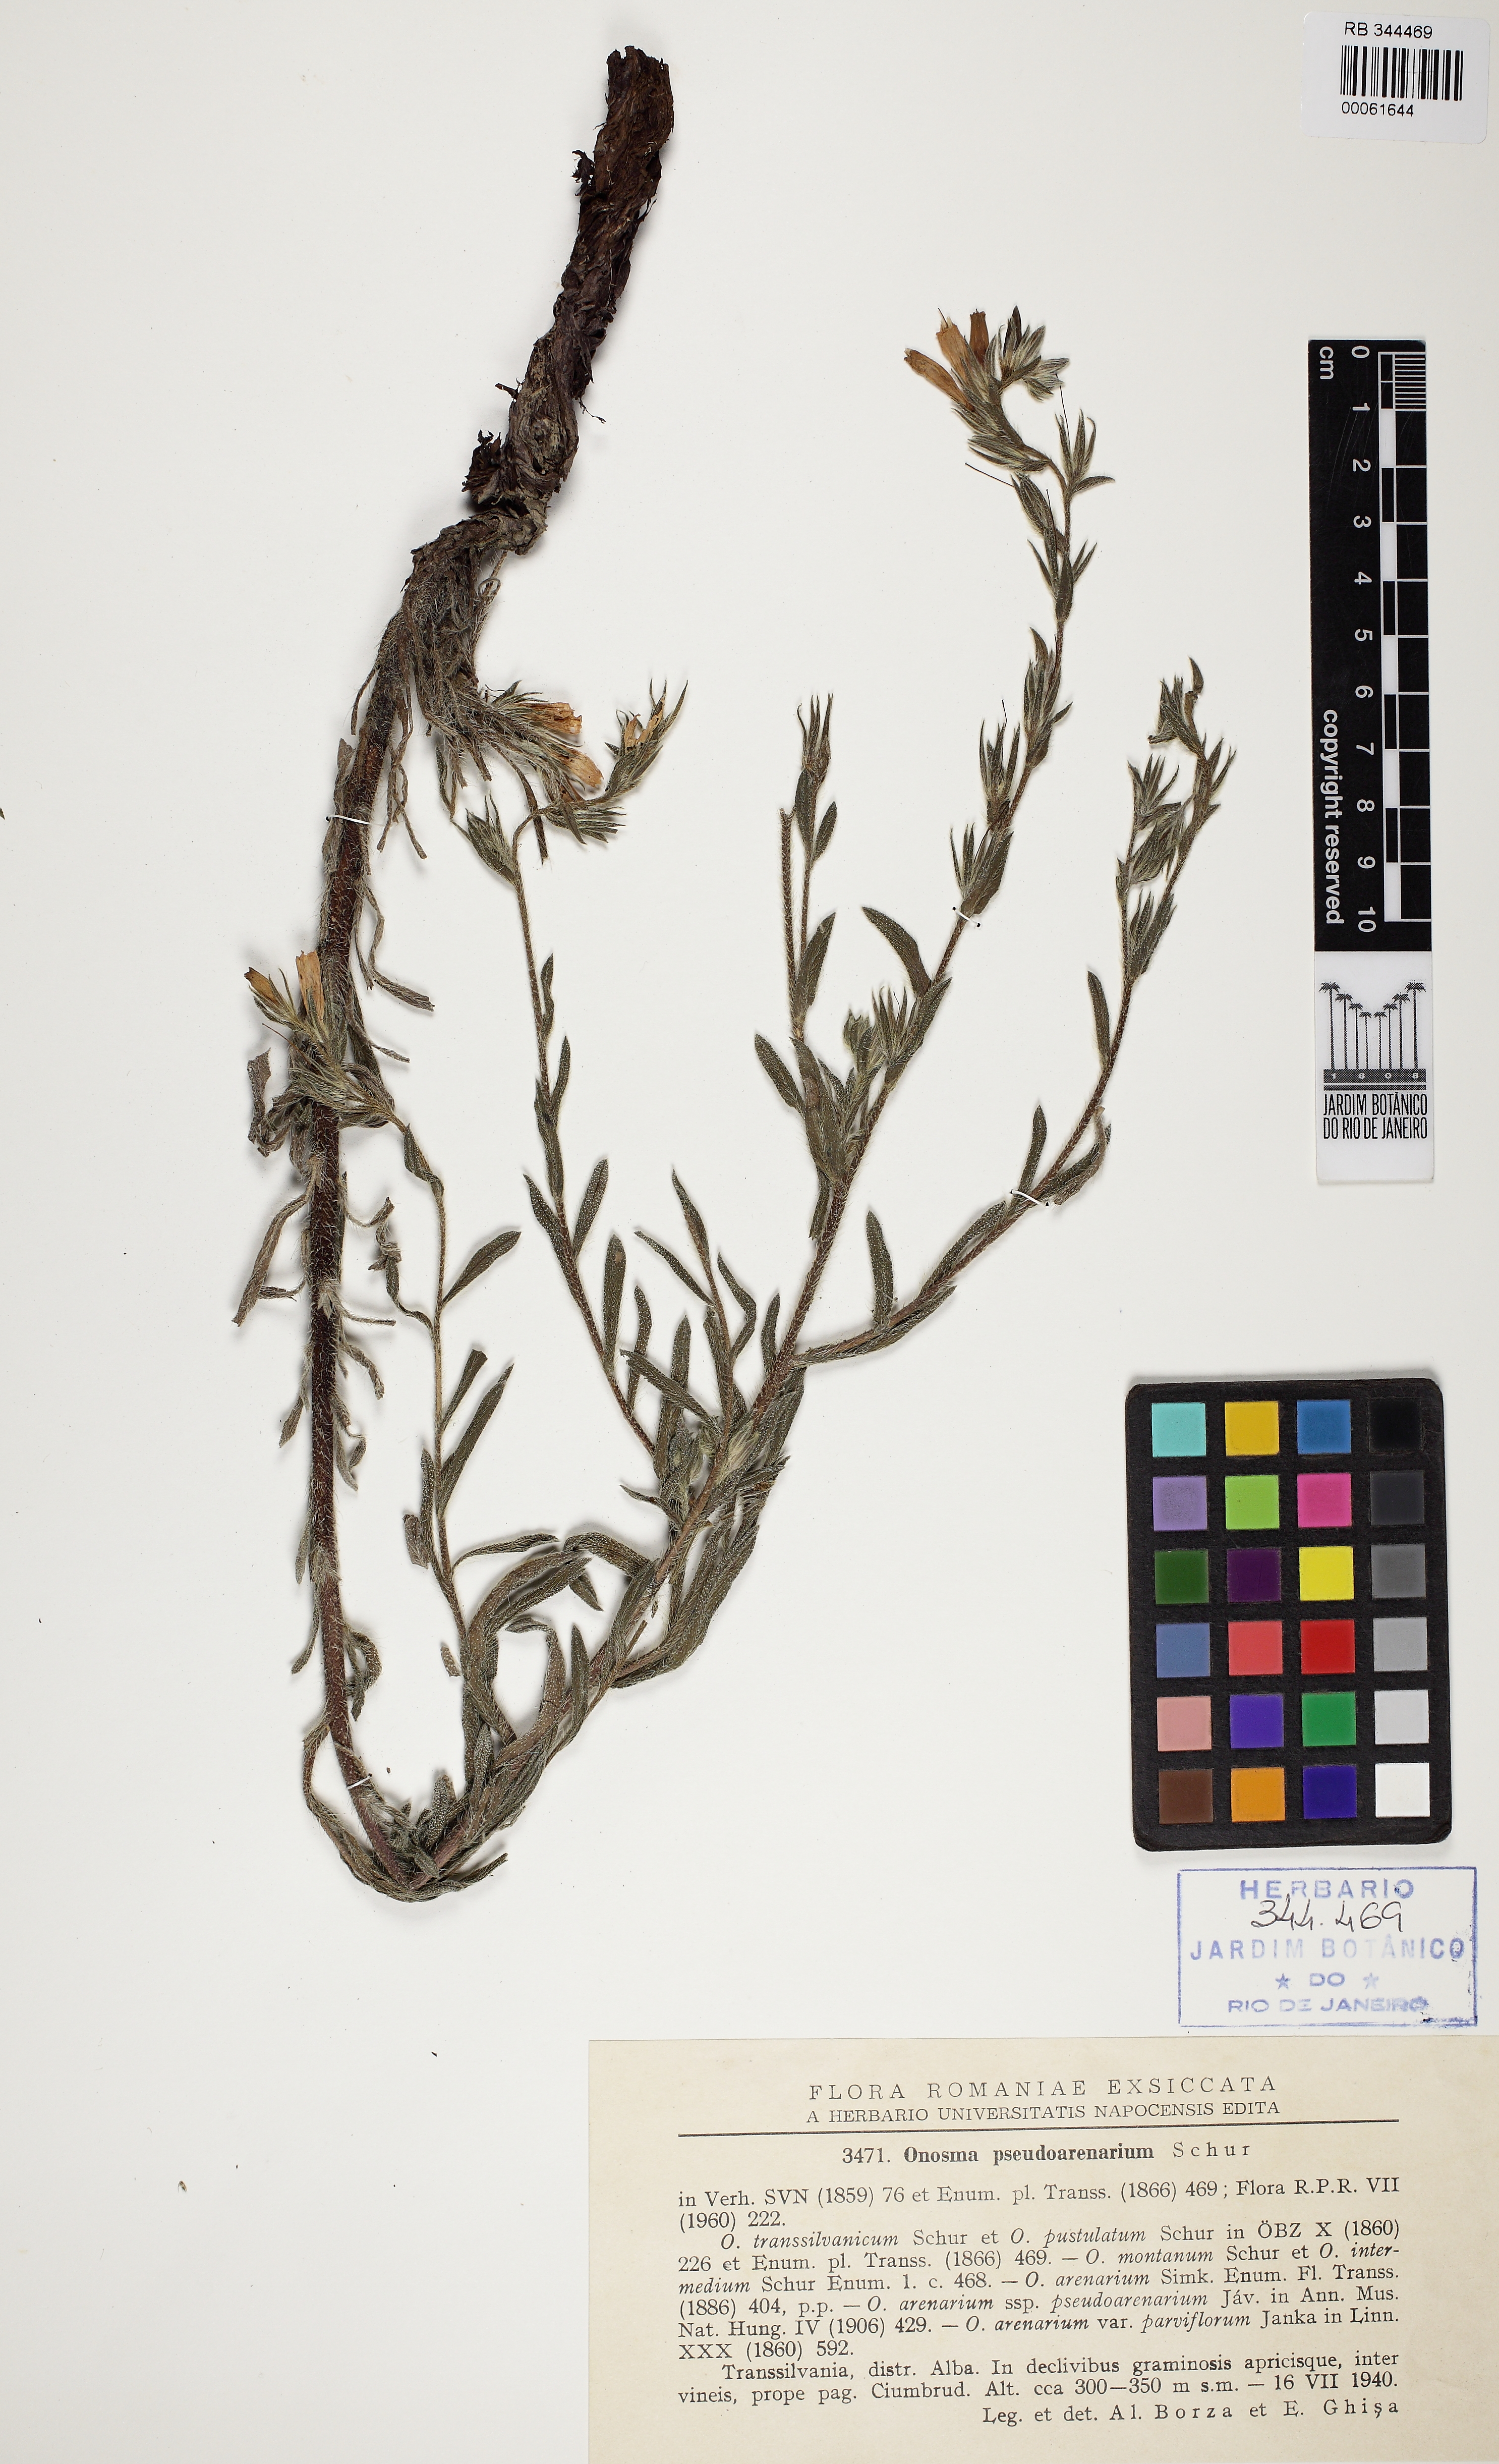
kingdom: Plantae
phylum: Tracheophyta
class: Magnoliopsida
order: Boraginales
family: Boraginaceae
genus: Onosma
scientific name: Onosma pseudoarenaria
